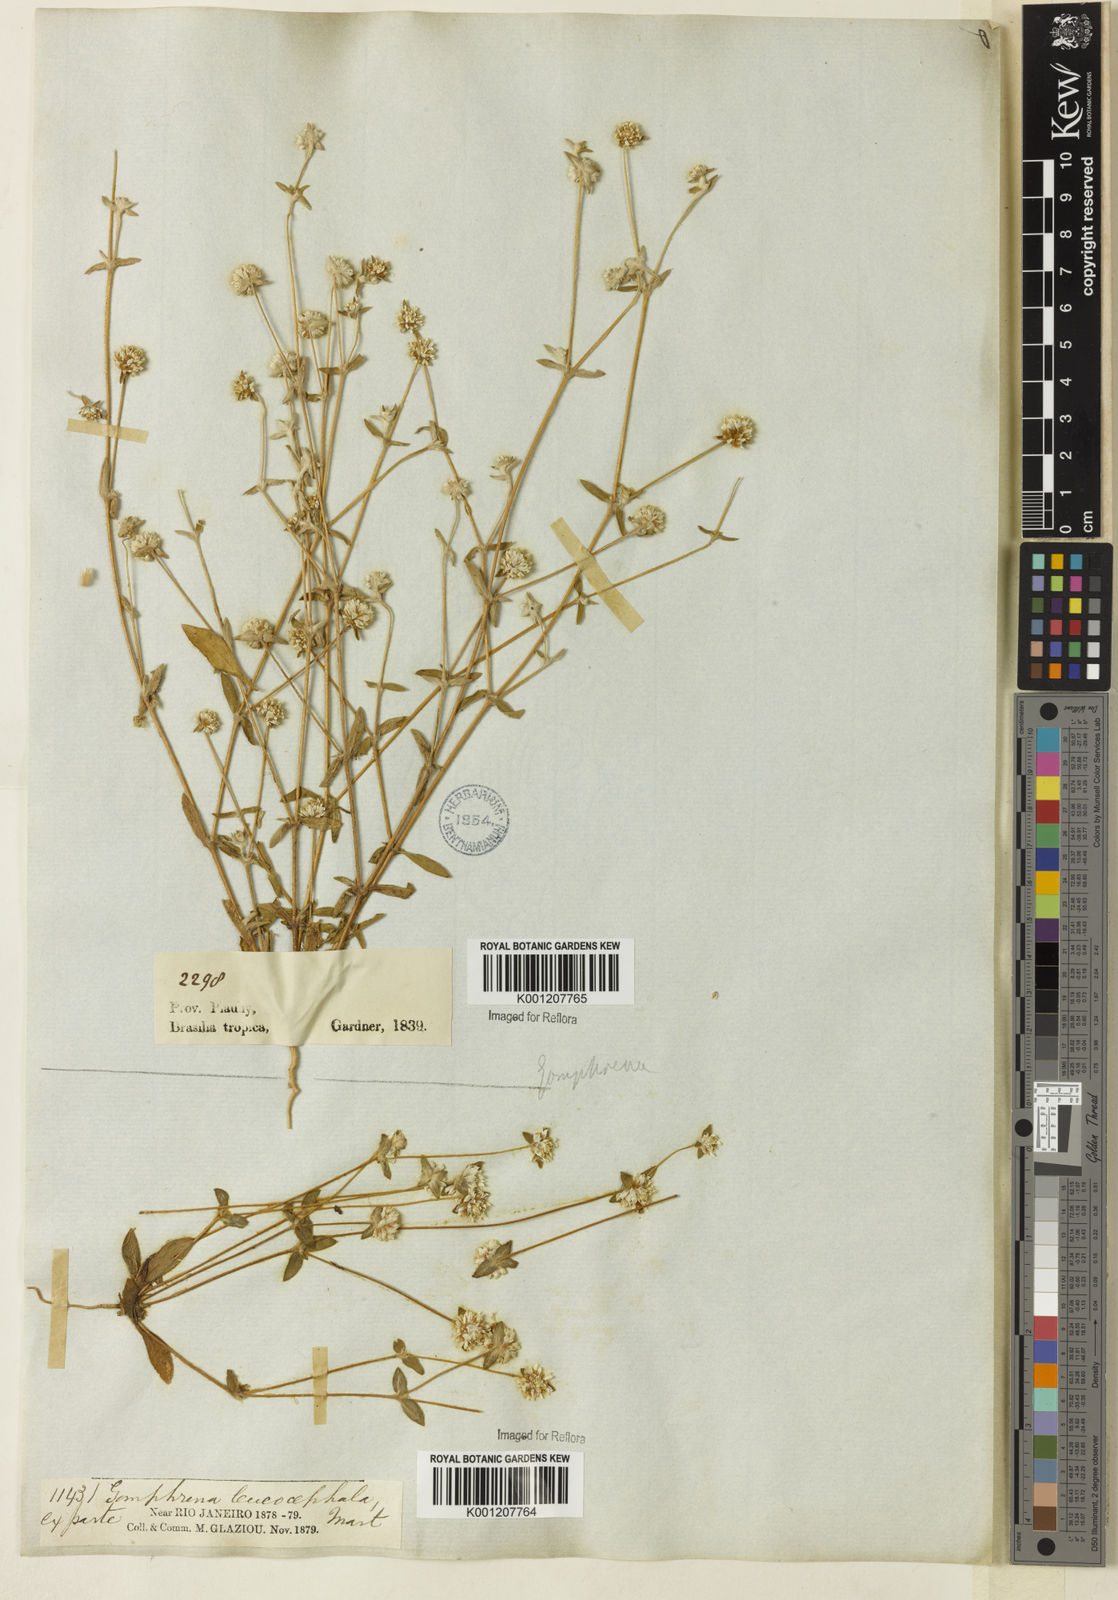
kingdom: Plantae
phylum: Tracheophyta
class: Magnoliopsida
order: Caryophyllales
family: Amaranthaceae
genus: Gomphrena
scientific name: Gomphrena leucocephala
